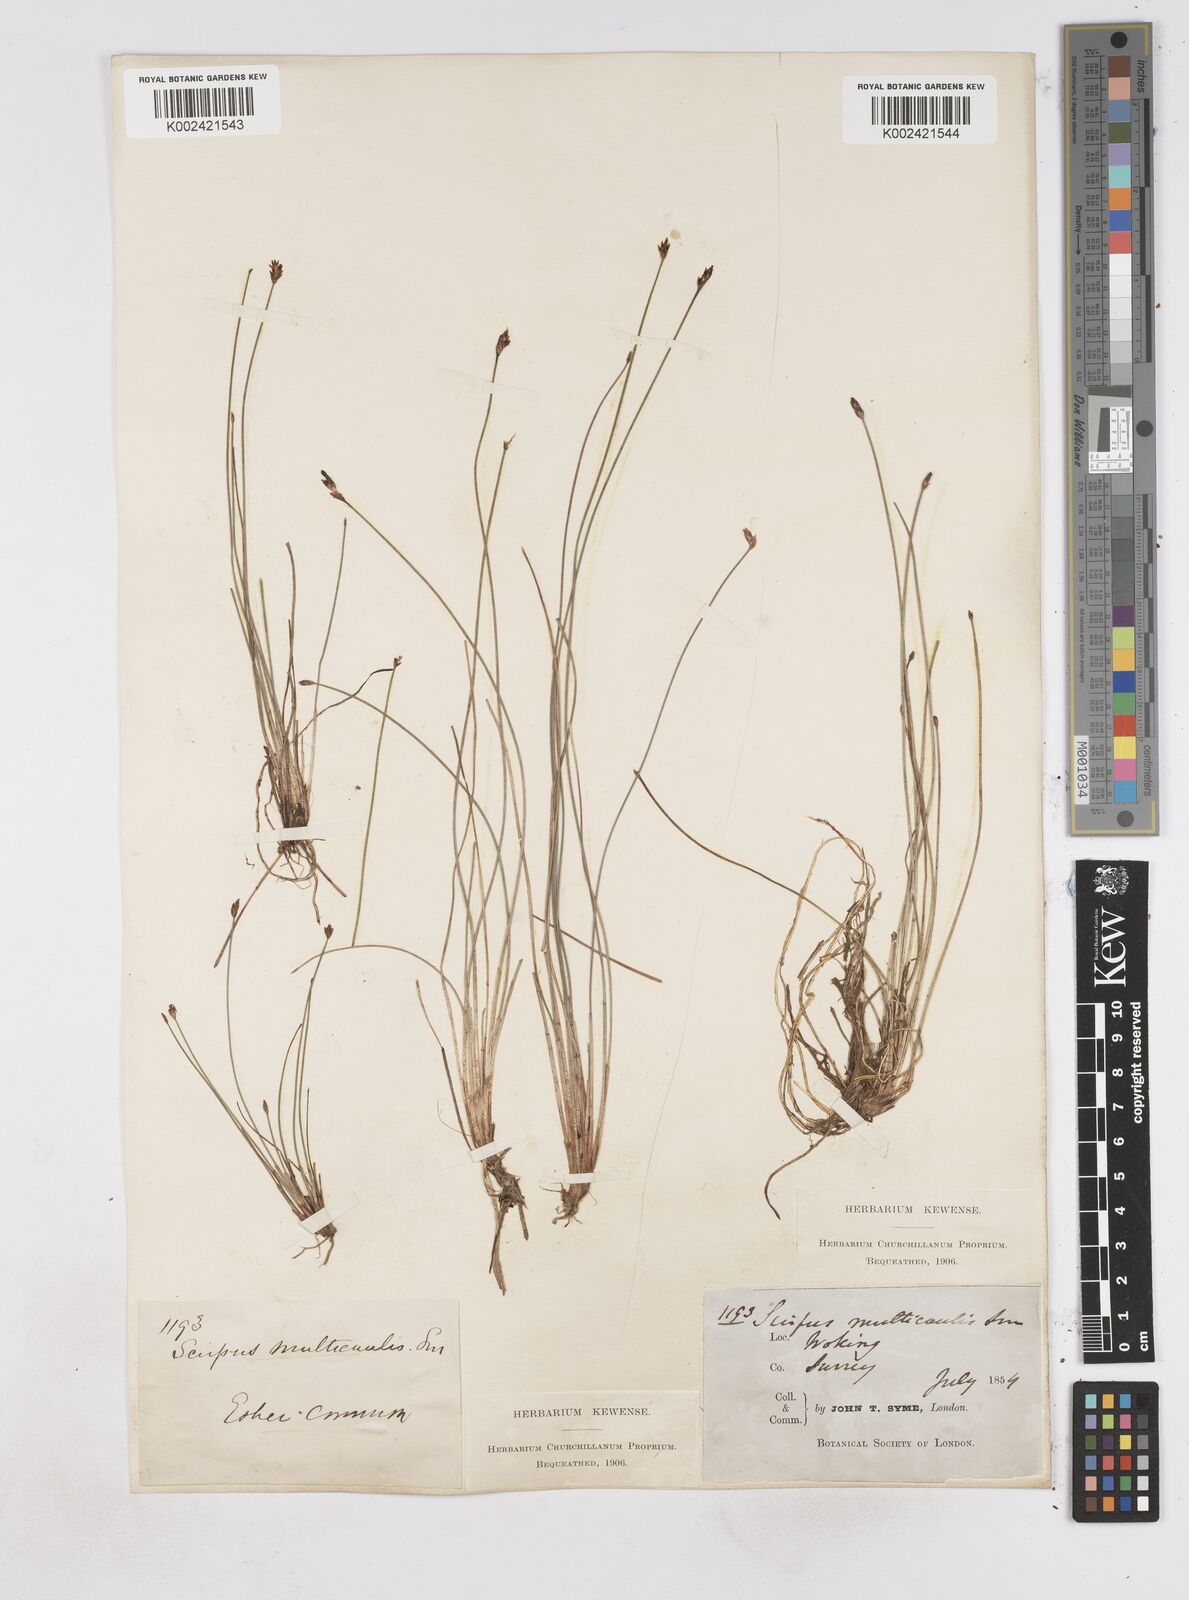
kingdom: Plantae
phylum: Tracheophyta
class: Liliopsida
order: Poales
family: Cyperaceae
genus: Eleocharis
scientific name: Eleocharis multicaulis
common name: Many-stalked spike-rush
